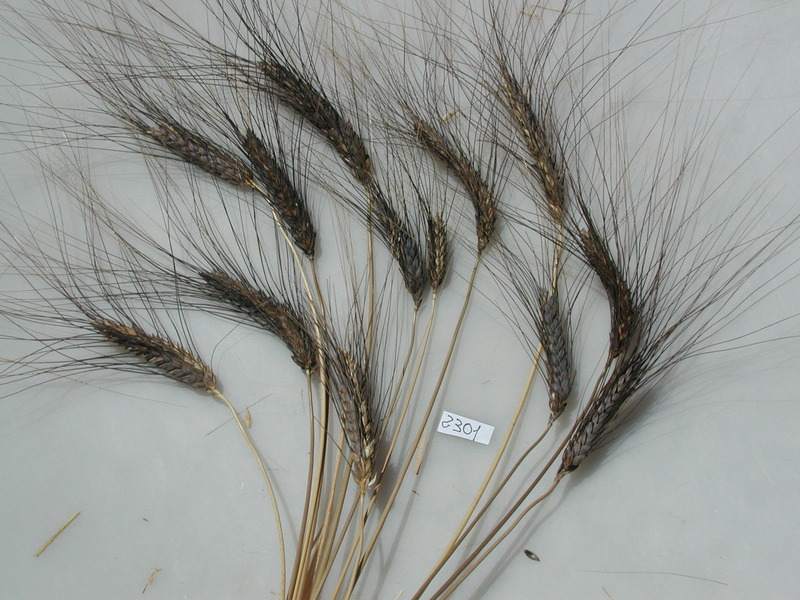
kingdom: Plantae
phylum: Tracheophyta
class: Liliopsida
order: Poales
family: Poaceae
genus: Triticum
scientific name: Triticum turgidum
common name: Wheat
